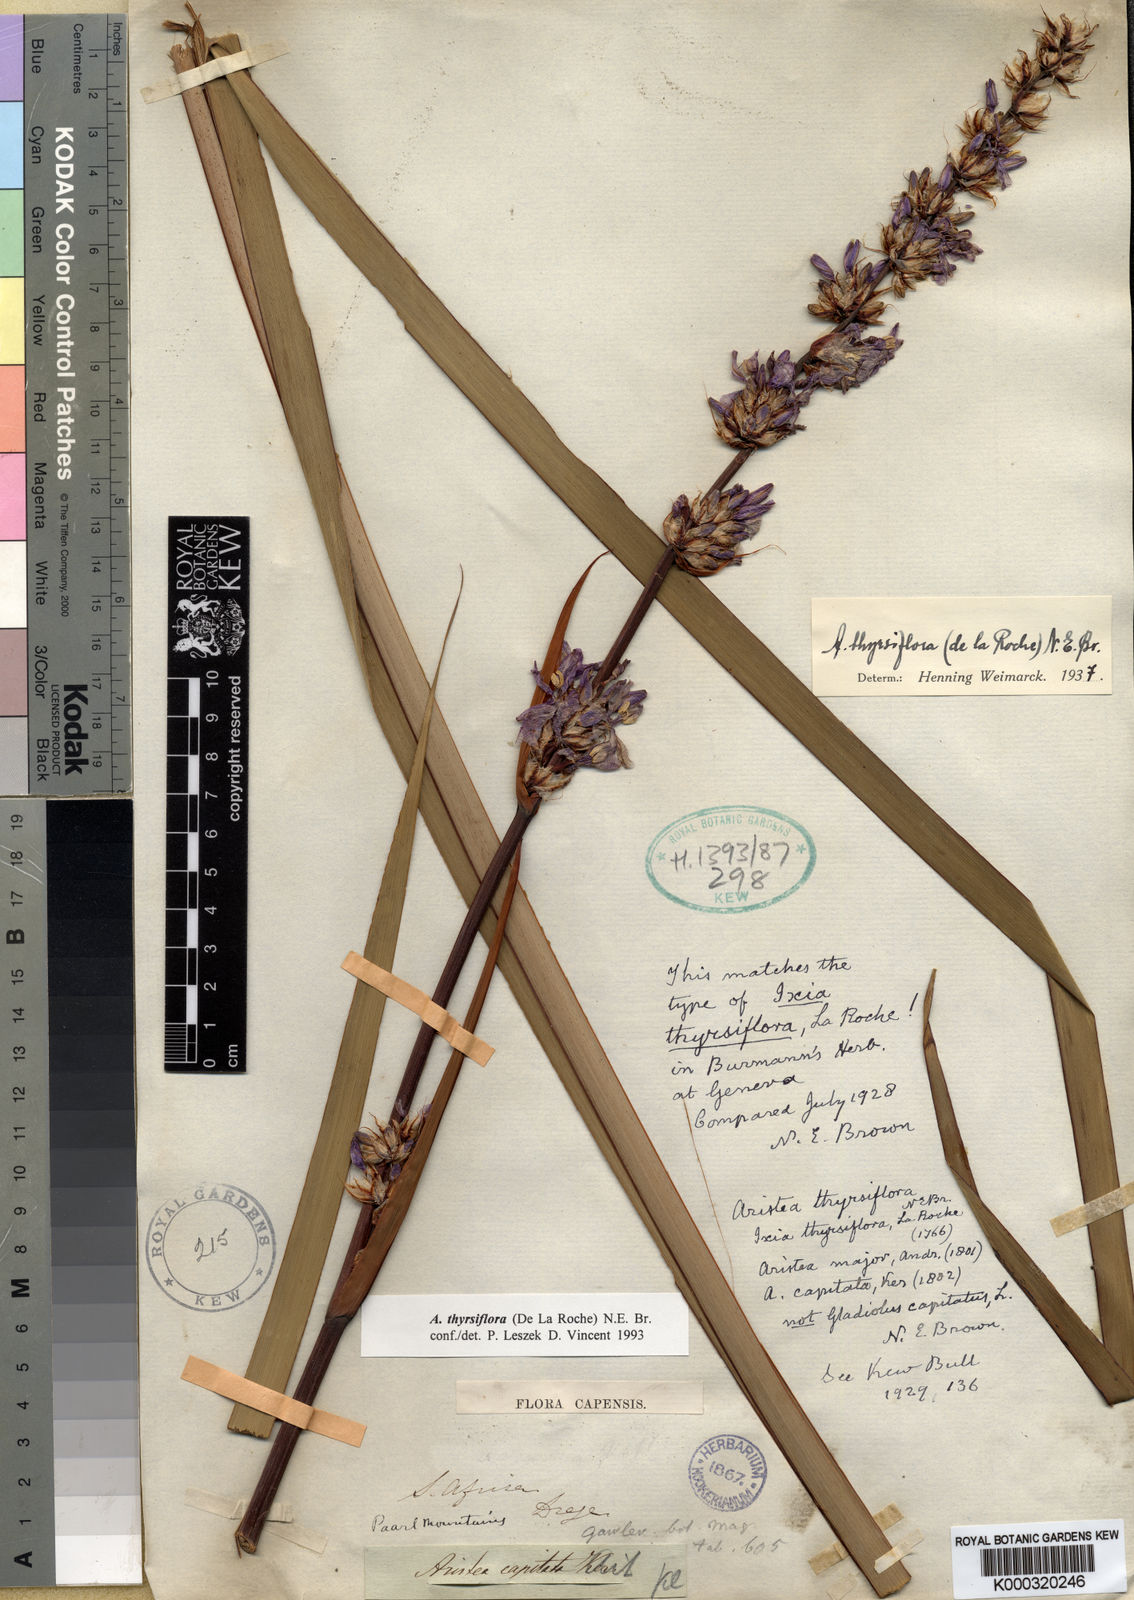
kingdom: Plantae
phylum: Tracheophyta
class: Liliopsida
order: Asparagales
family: Iridaceae
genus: Aristea
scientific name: Aristea capitata
